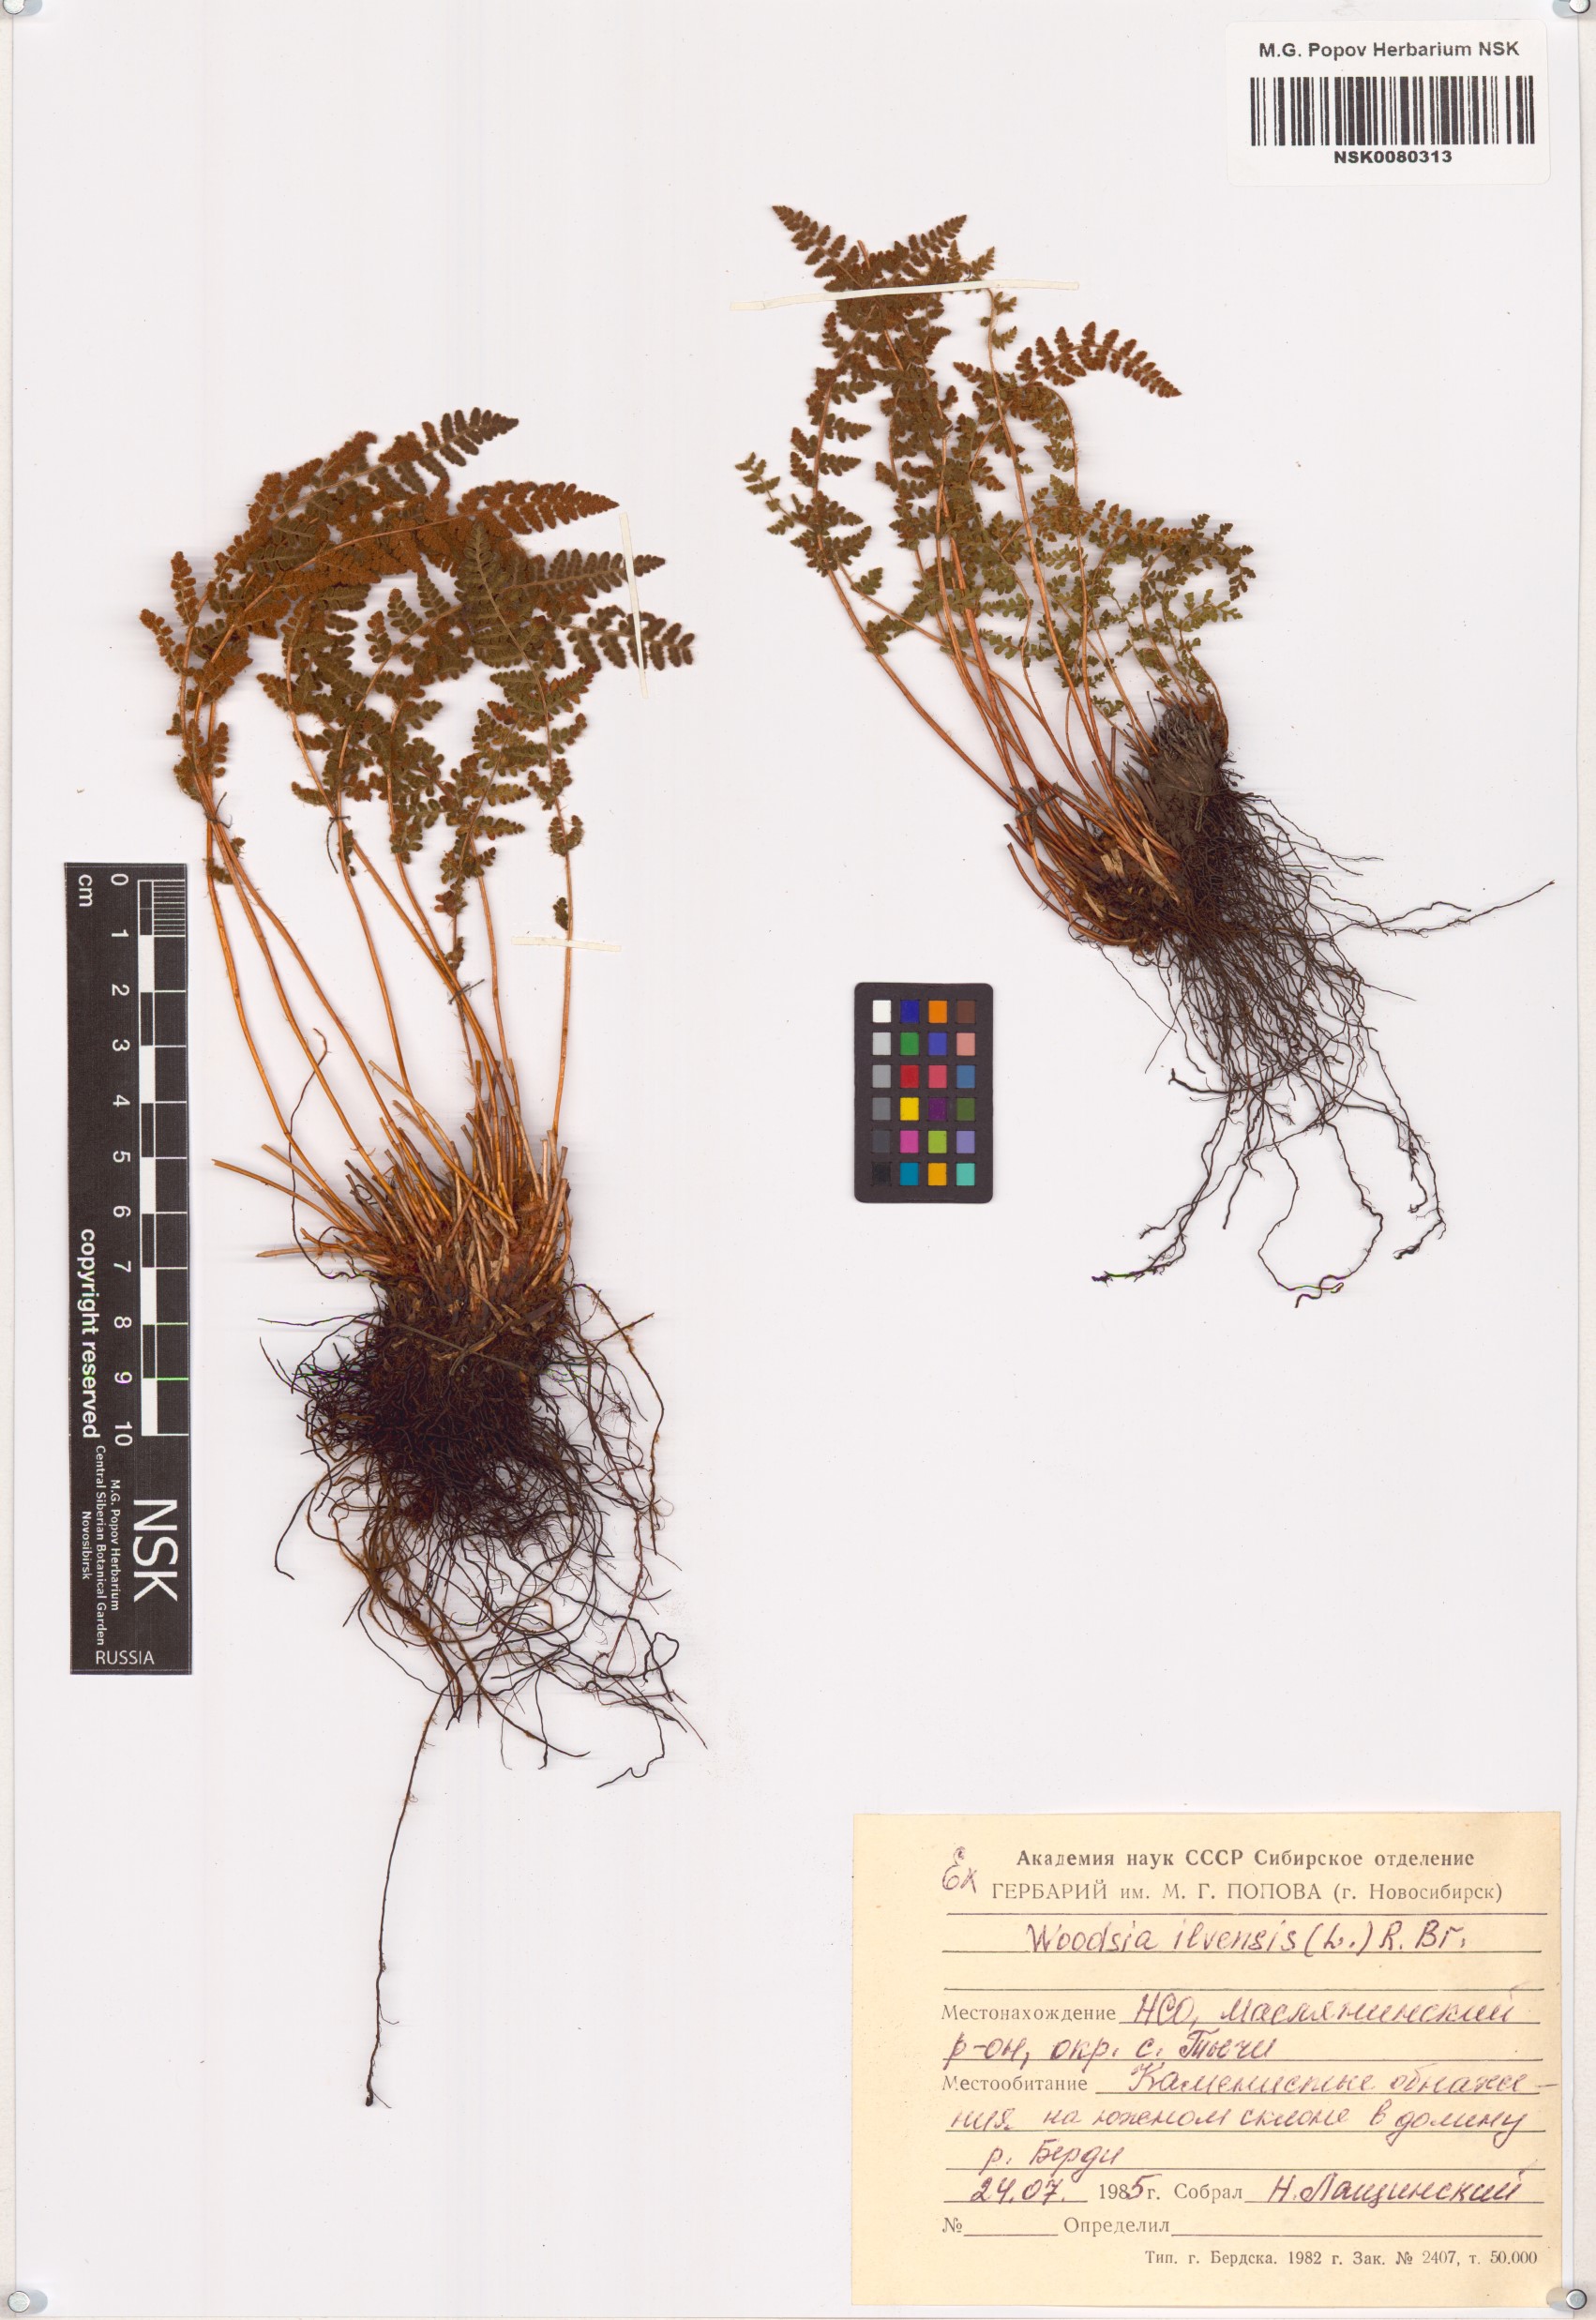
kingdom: Plantae
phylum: Tracheophyta
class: Polypodiopsida
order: Polypodiales
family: Woodsiaceae
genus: Woodsia
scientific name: Woodsia ilvensis
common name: Fragrant woodsia
